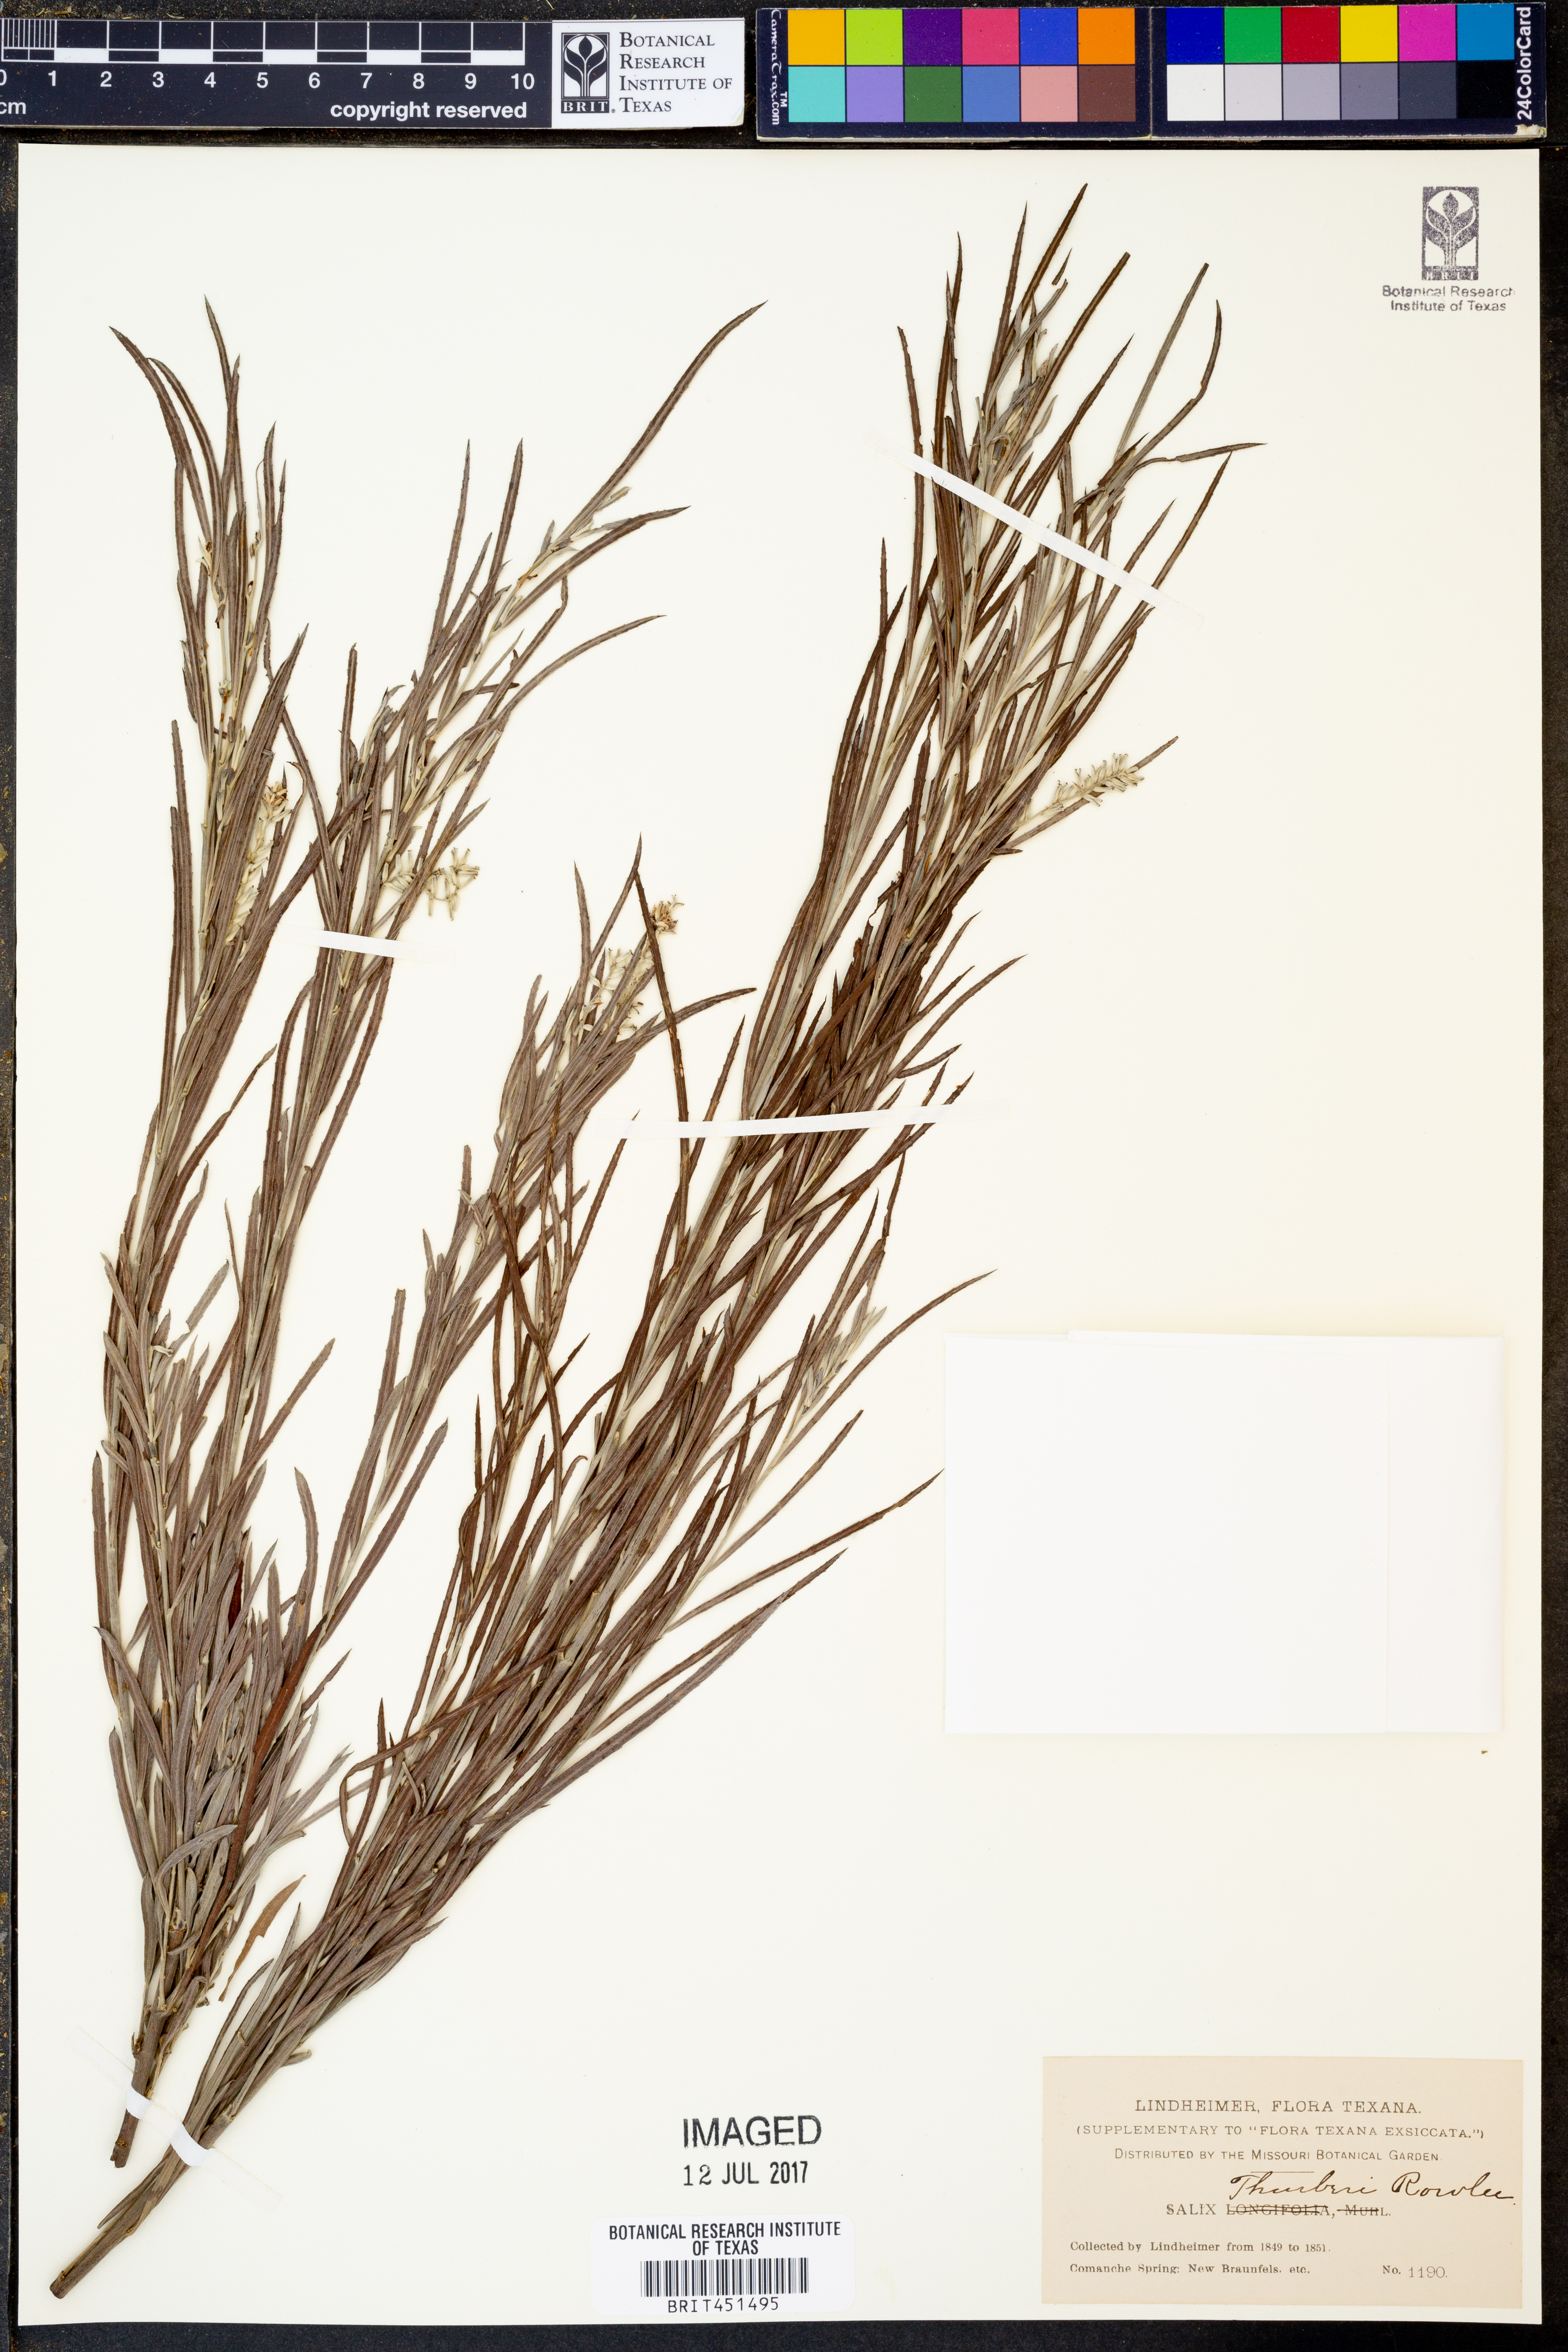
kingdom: Plantae
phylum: Tracheophyta
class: Magnoliopsida
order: Malpighiales
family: Salicaceae
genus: Salix
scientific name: Salix exigua
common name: Coyote willow
